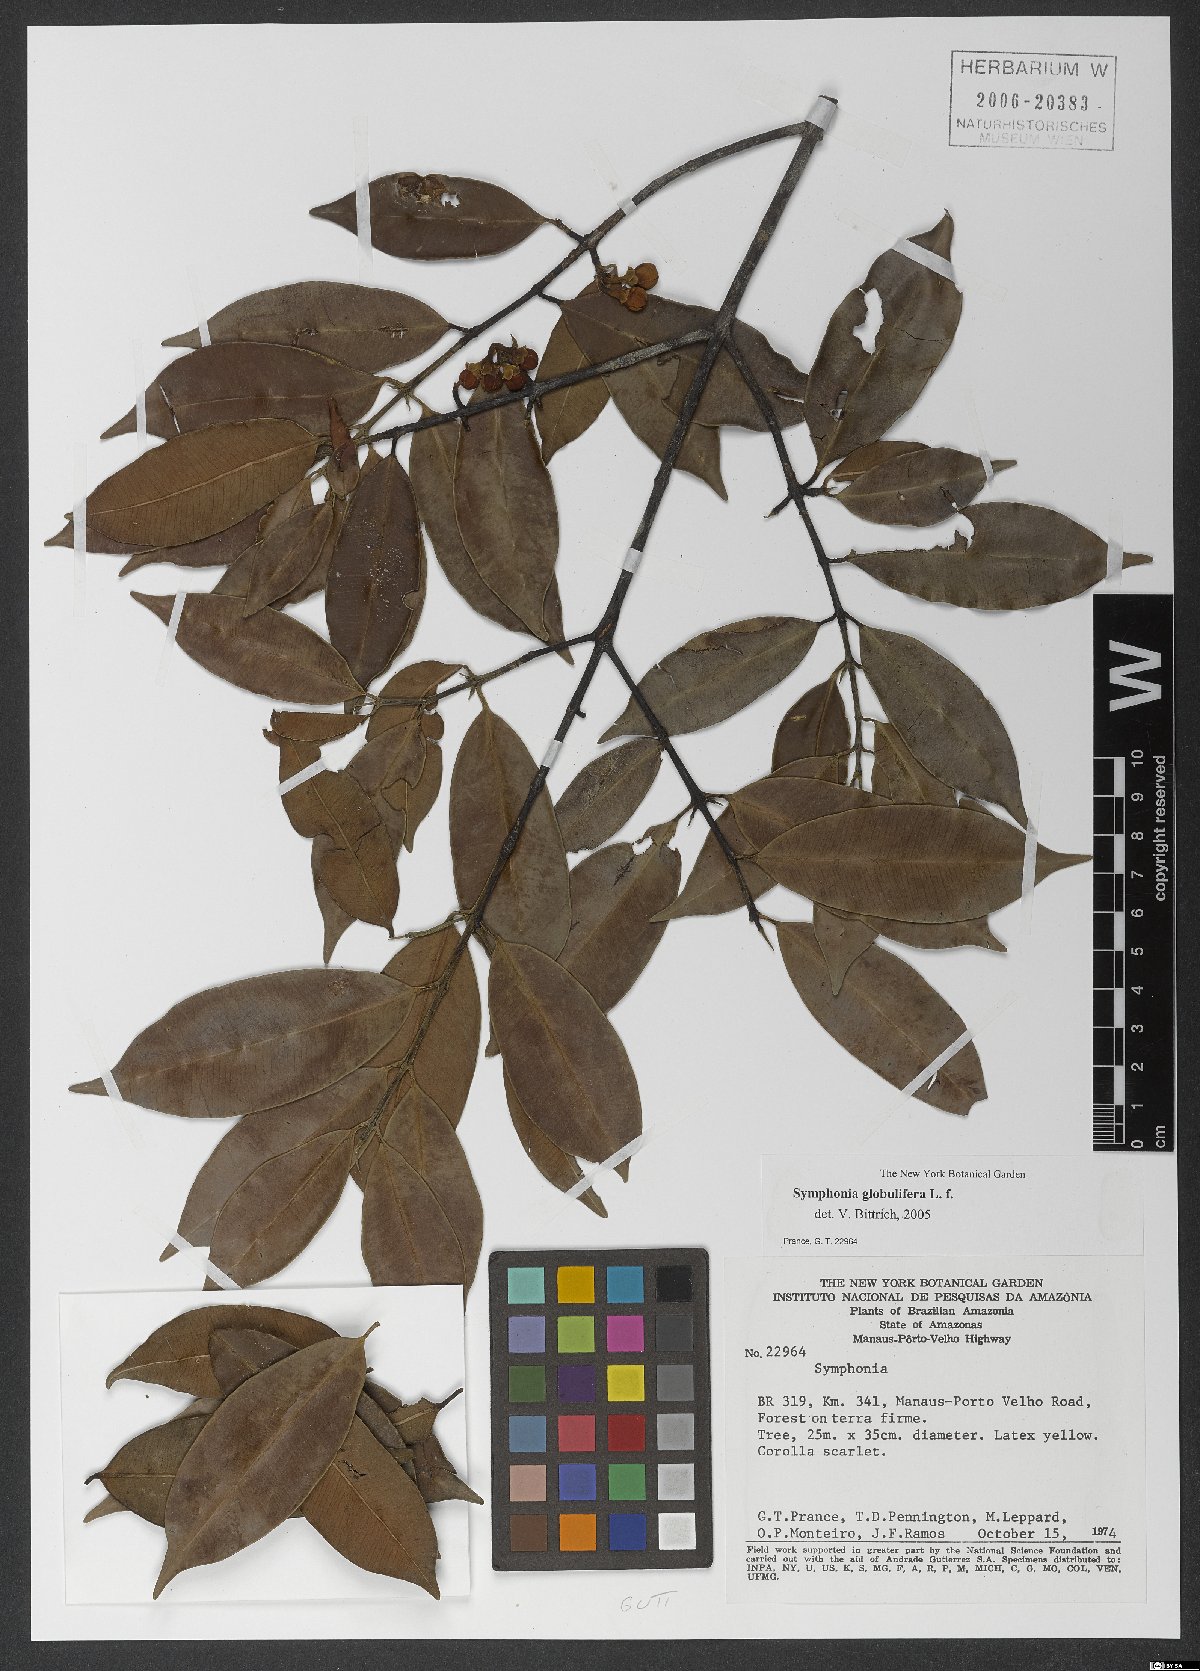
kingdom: Plantae
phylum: Tracheophyta
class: Magnoliopsida
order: Malpighiales
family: Clusiaceae
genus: Symphonia
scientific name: Symphonia globulifera
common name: Boarwood
